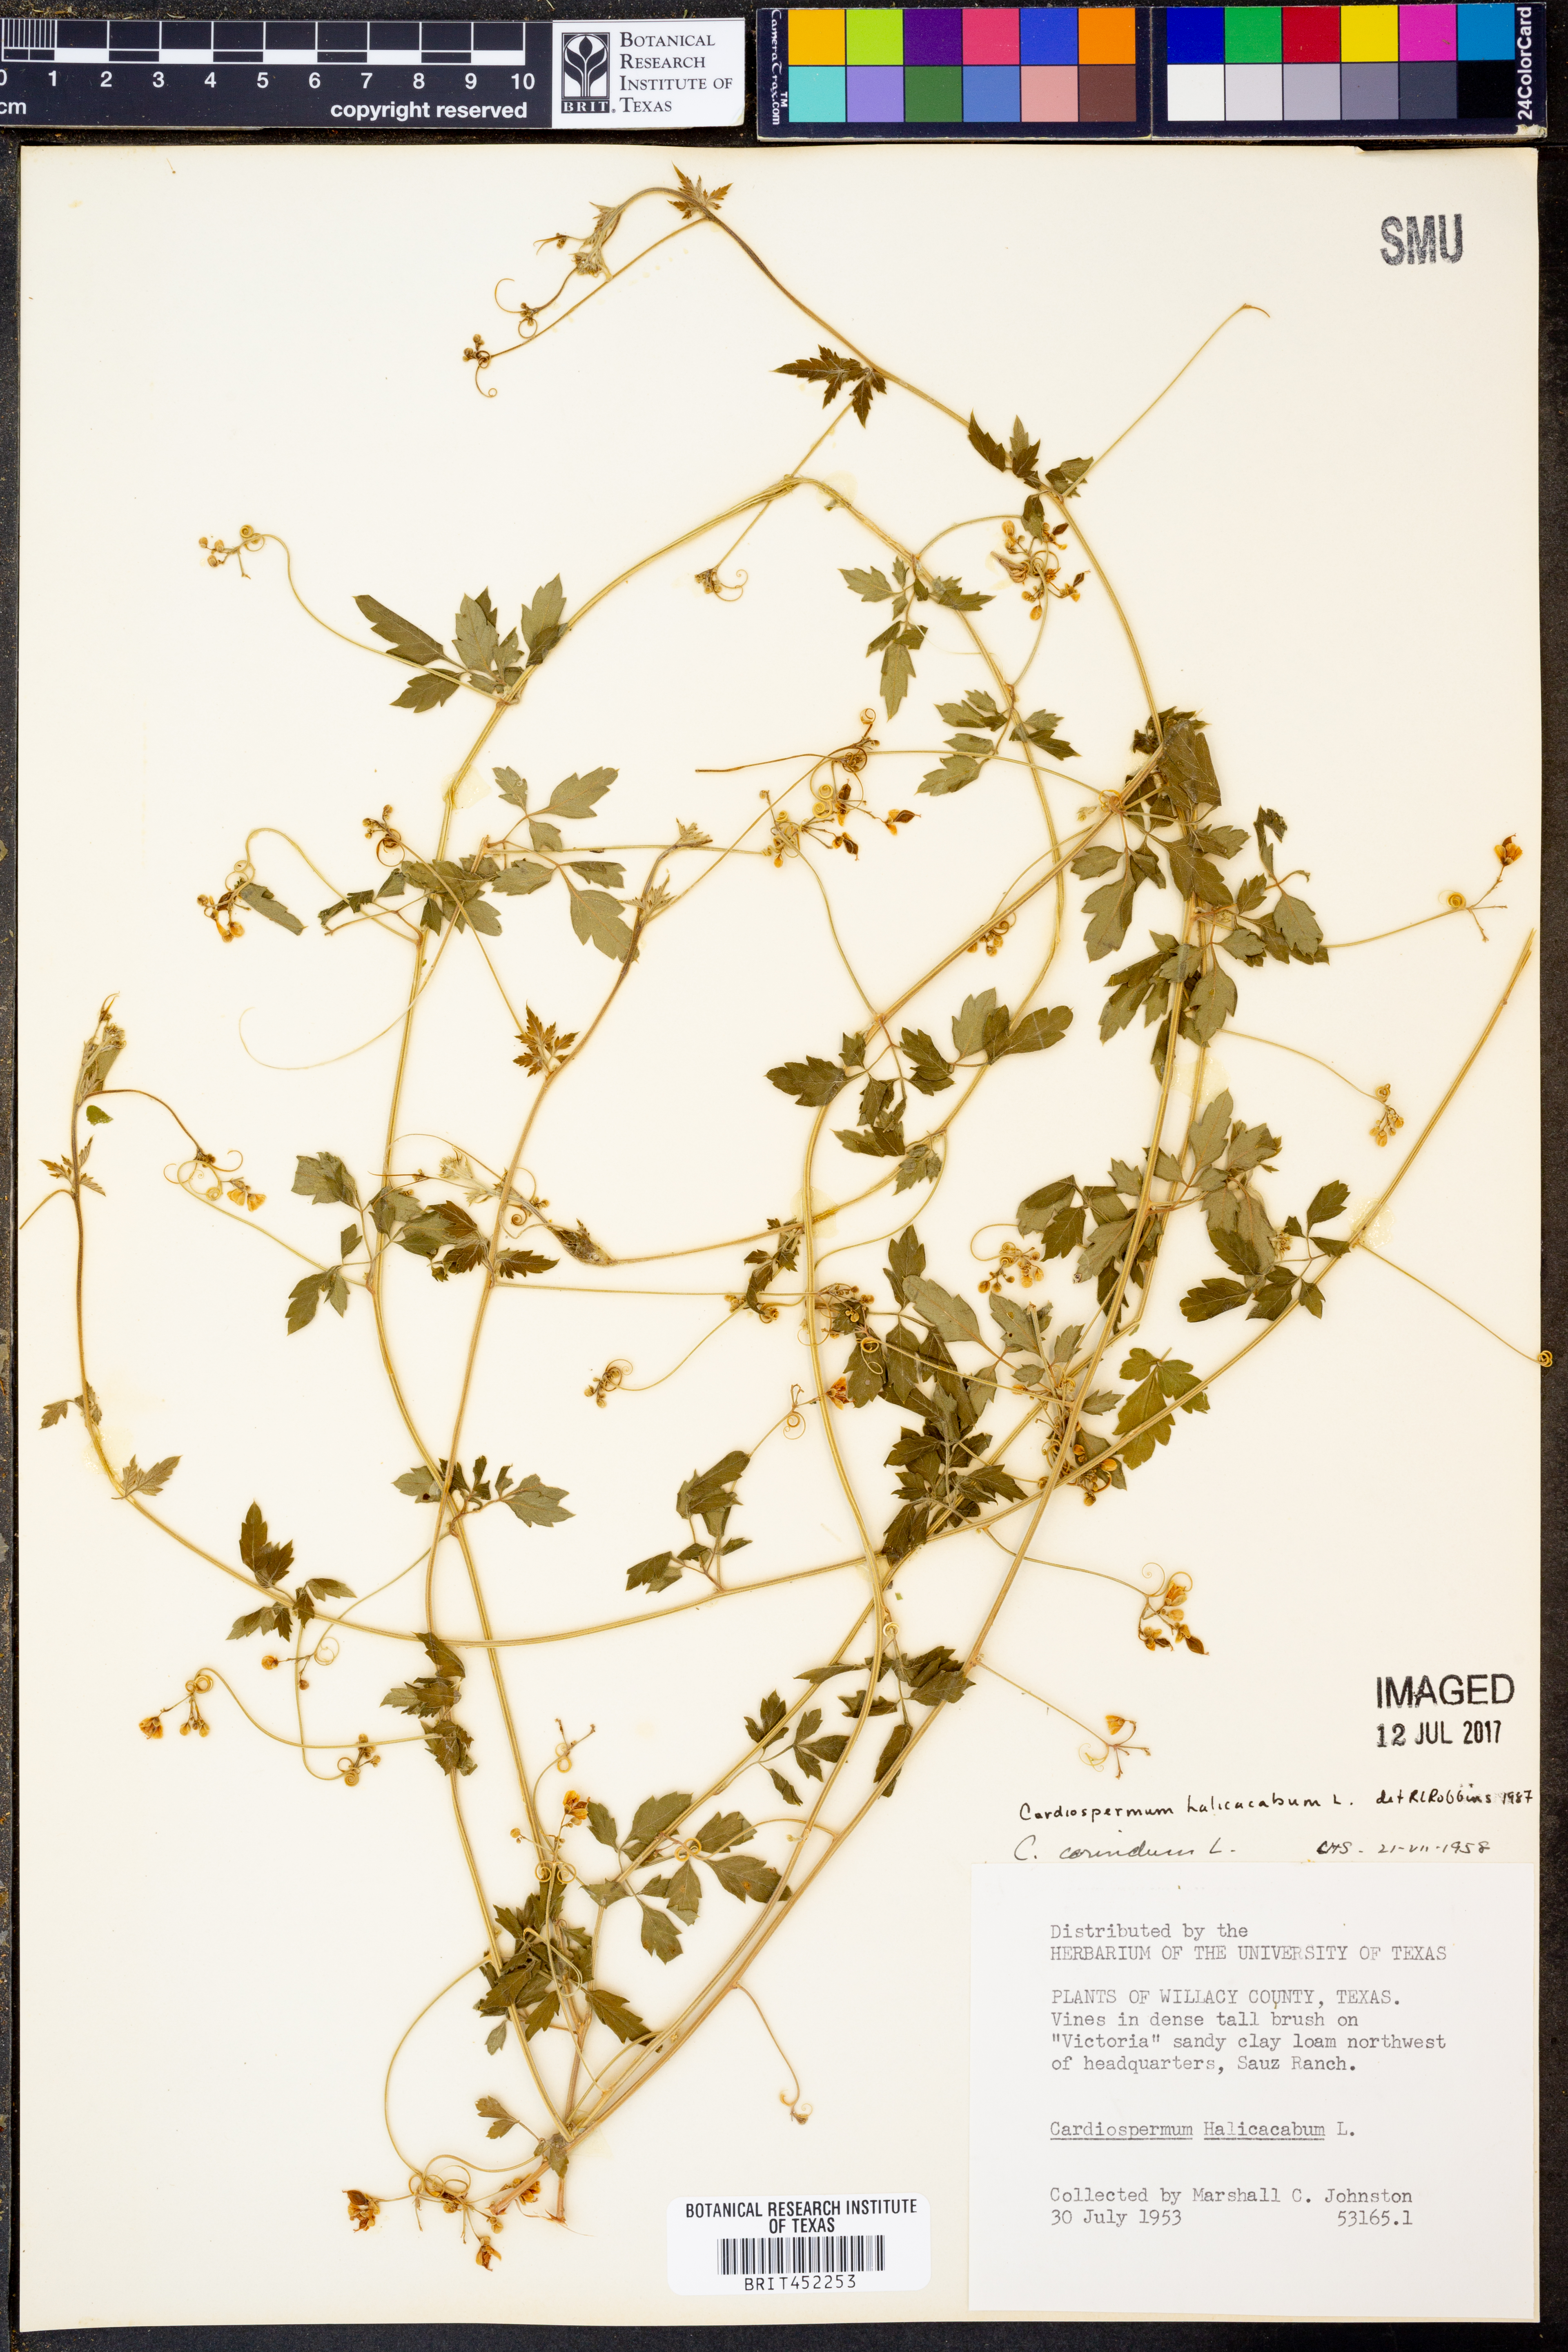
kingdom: Plantae
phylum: Tracheophyta
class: Magnoliopsida
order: Sapindales
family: Sapindaceae
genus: Cardiospermum
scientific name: Cardiospermum halicacabum
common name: Balloon vine
